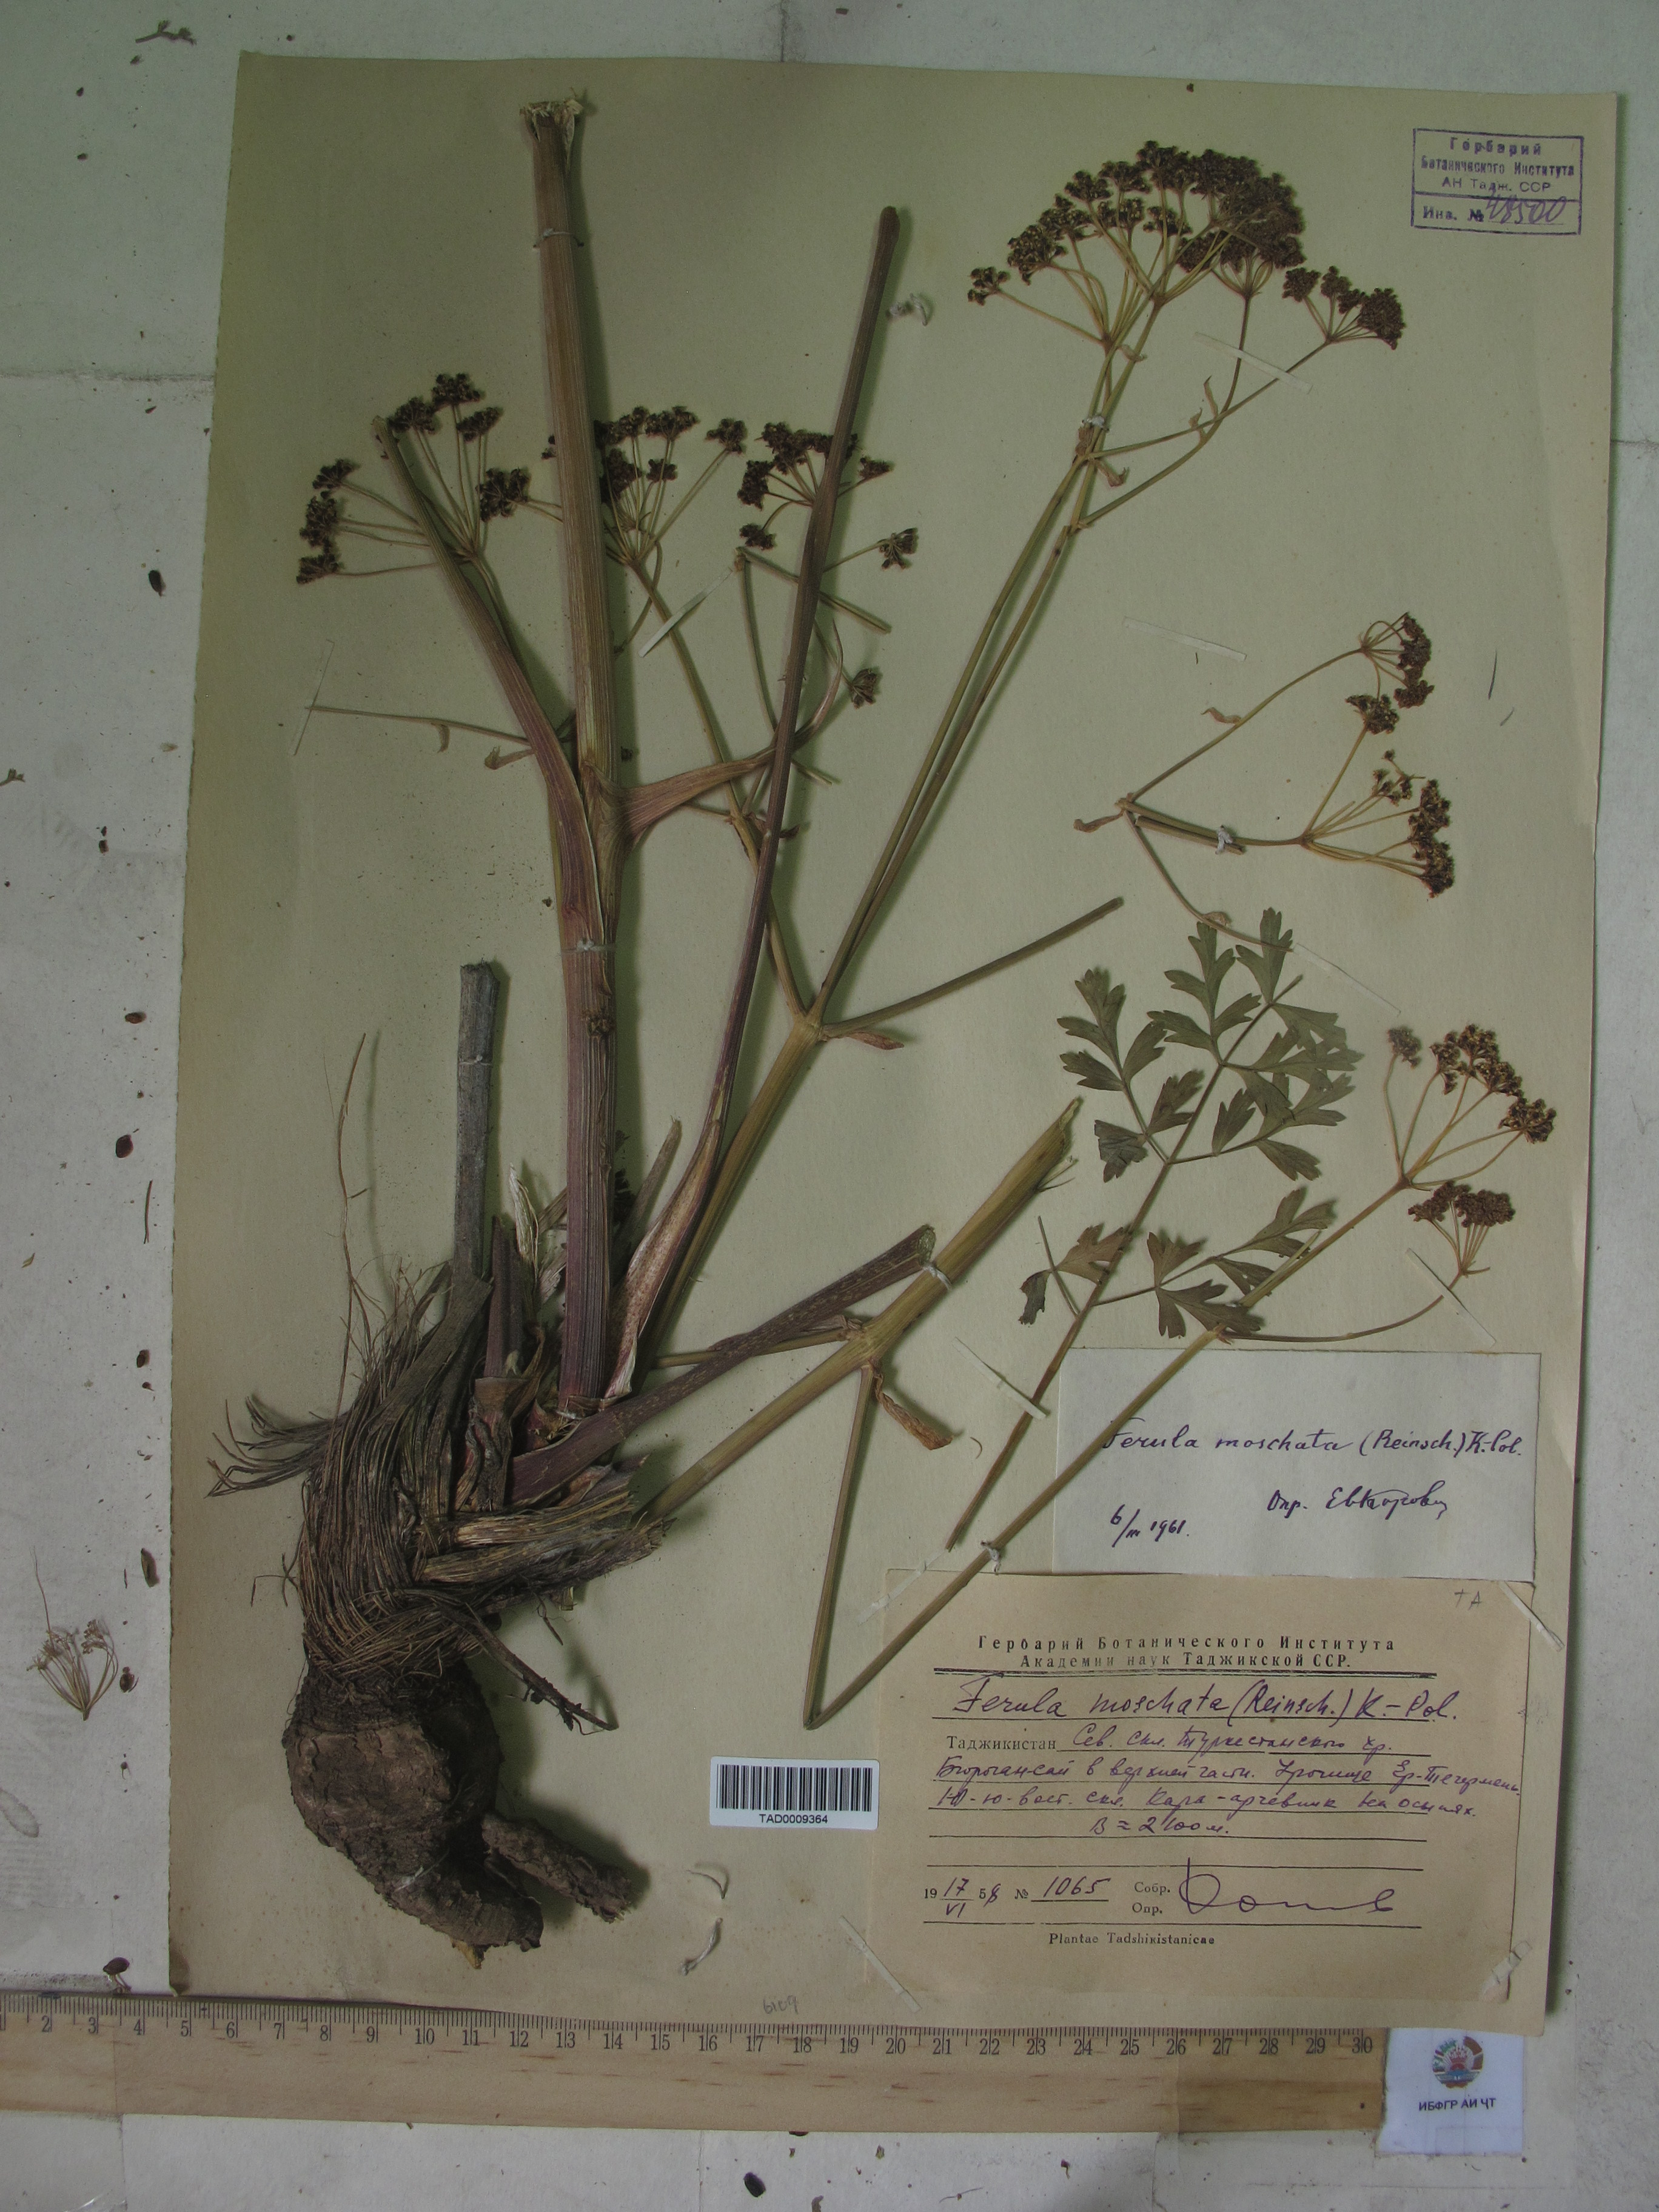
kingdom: Plantae
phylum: Tracheophyta
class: Magnoliopsida
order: Apiales
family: Apiaceae
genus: Ferula
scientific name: Ferula moschata
